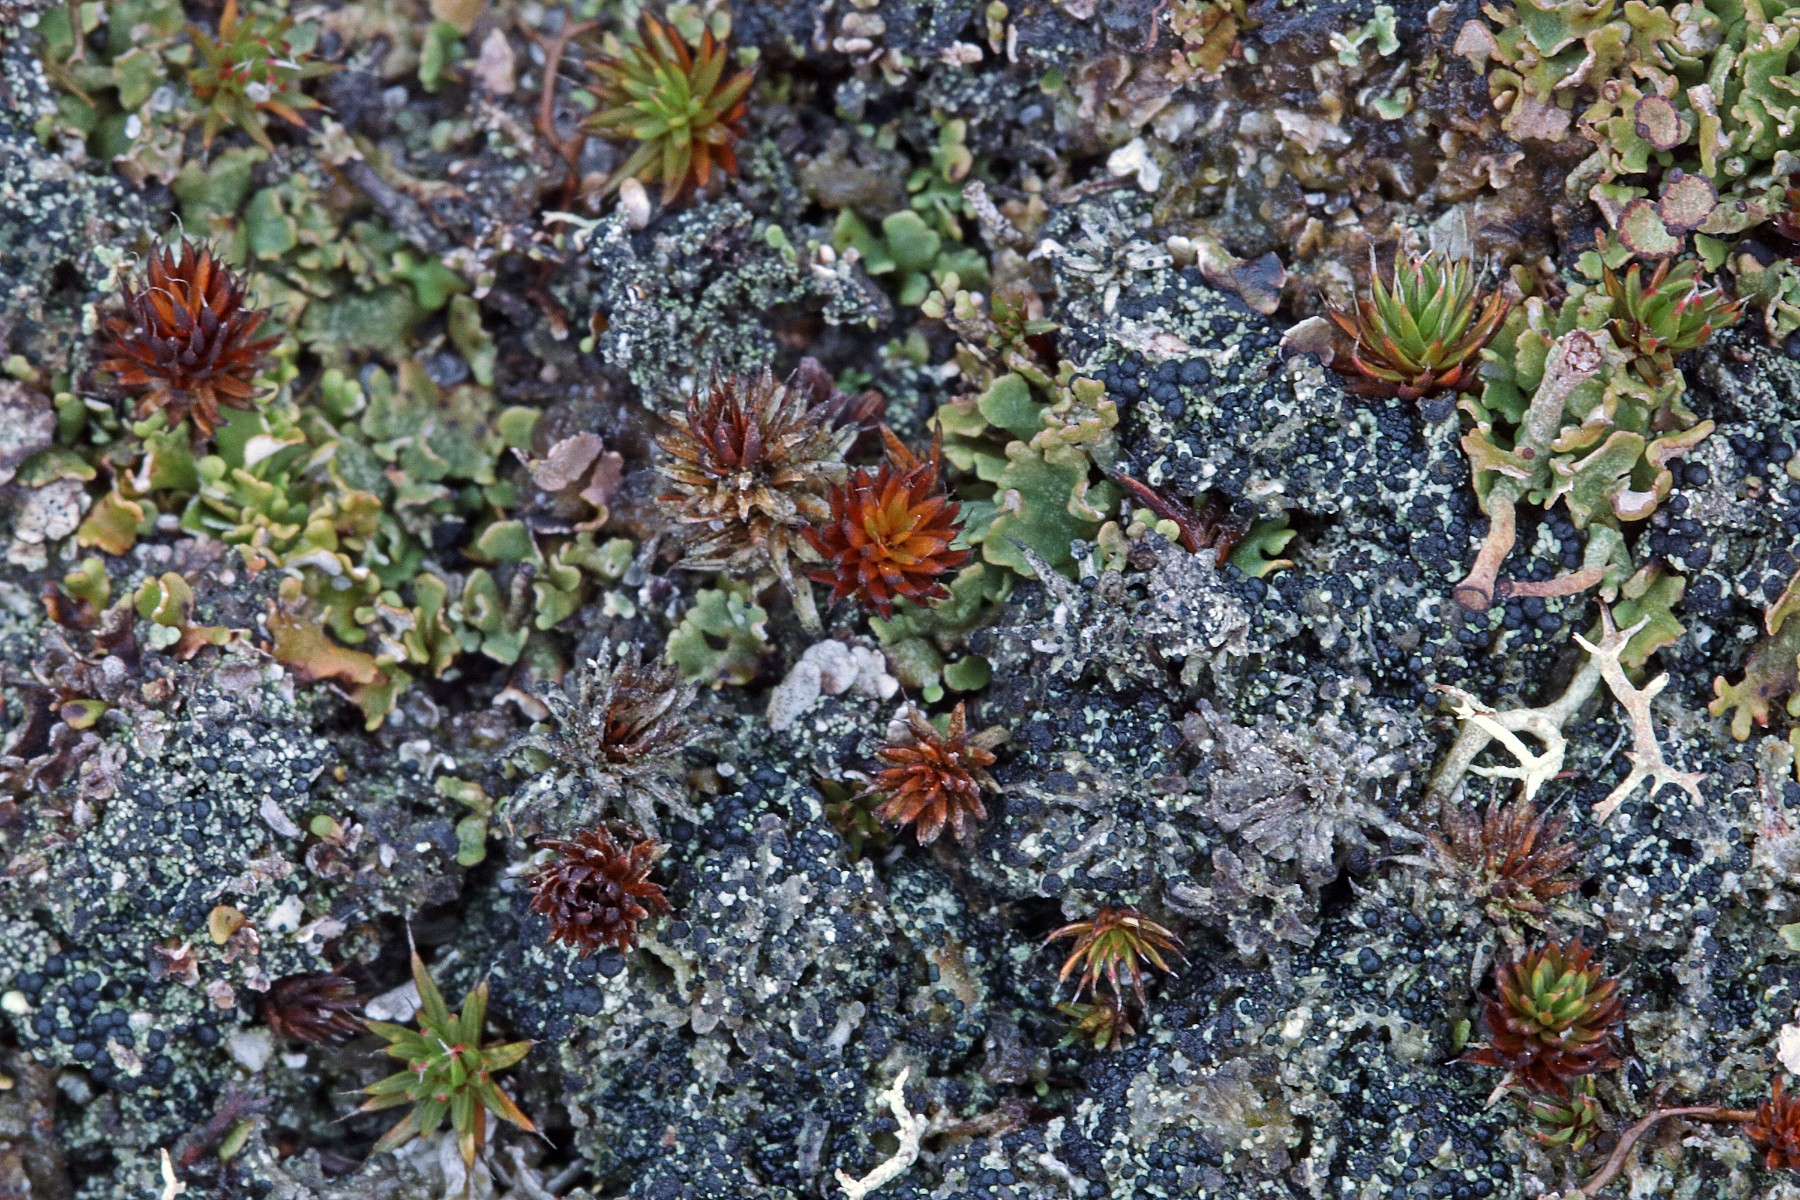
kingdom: Fungi
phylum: Ascomycota
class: Lecanoromycetes
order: Lecanorales
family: Byssolomataceae
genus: Micarea
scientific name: Micarea lignaria
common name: tørve-knaplav
